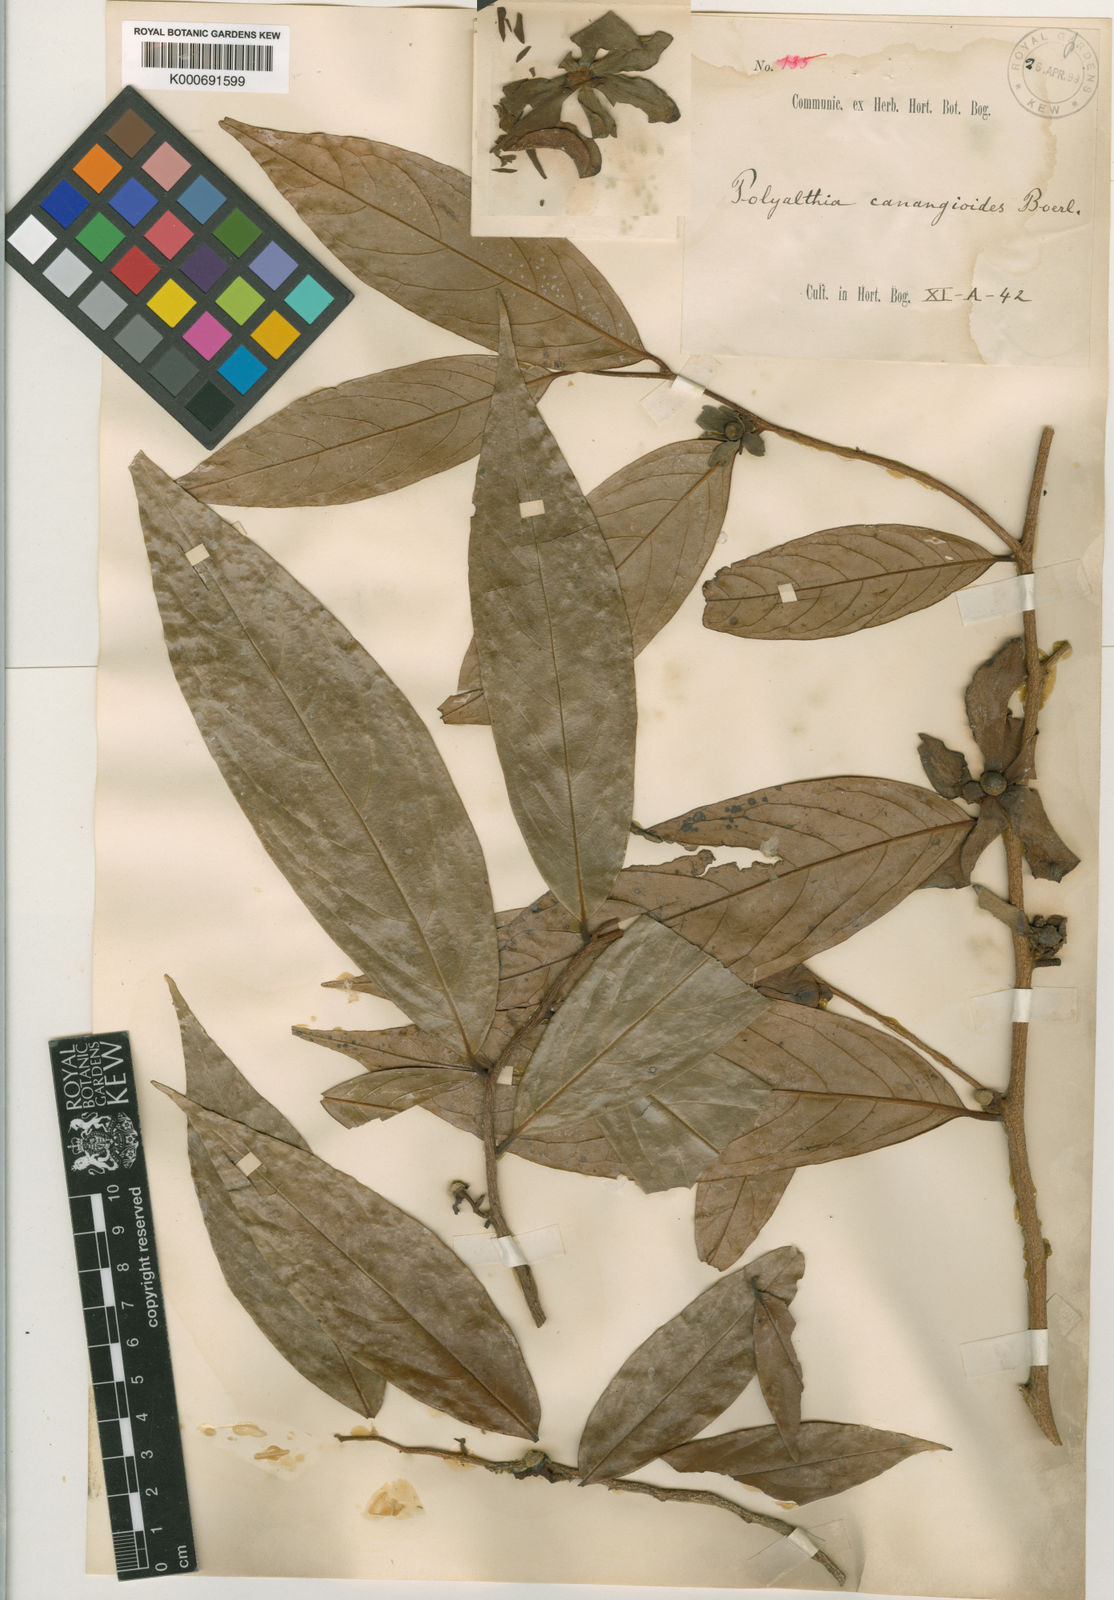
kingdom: Plantae
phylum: Tracheophyta
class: Magnoliopsida
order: Magnoliales
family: Annonaceae
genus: Hubera
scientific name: Hubera rumphii
